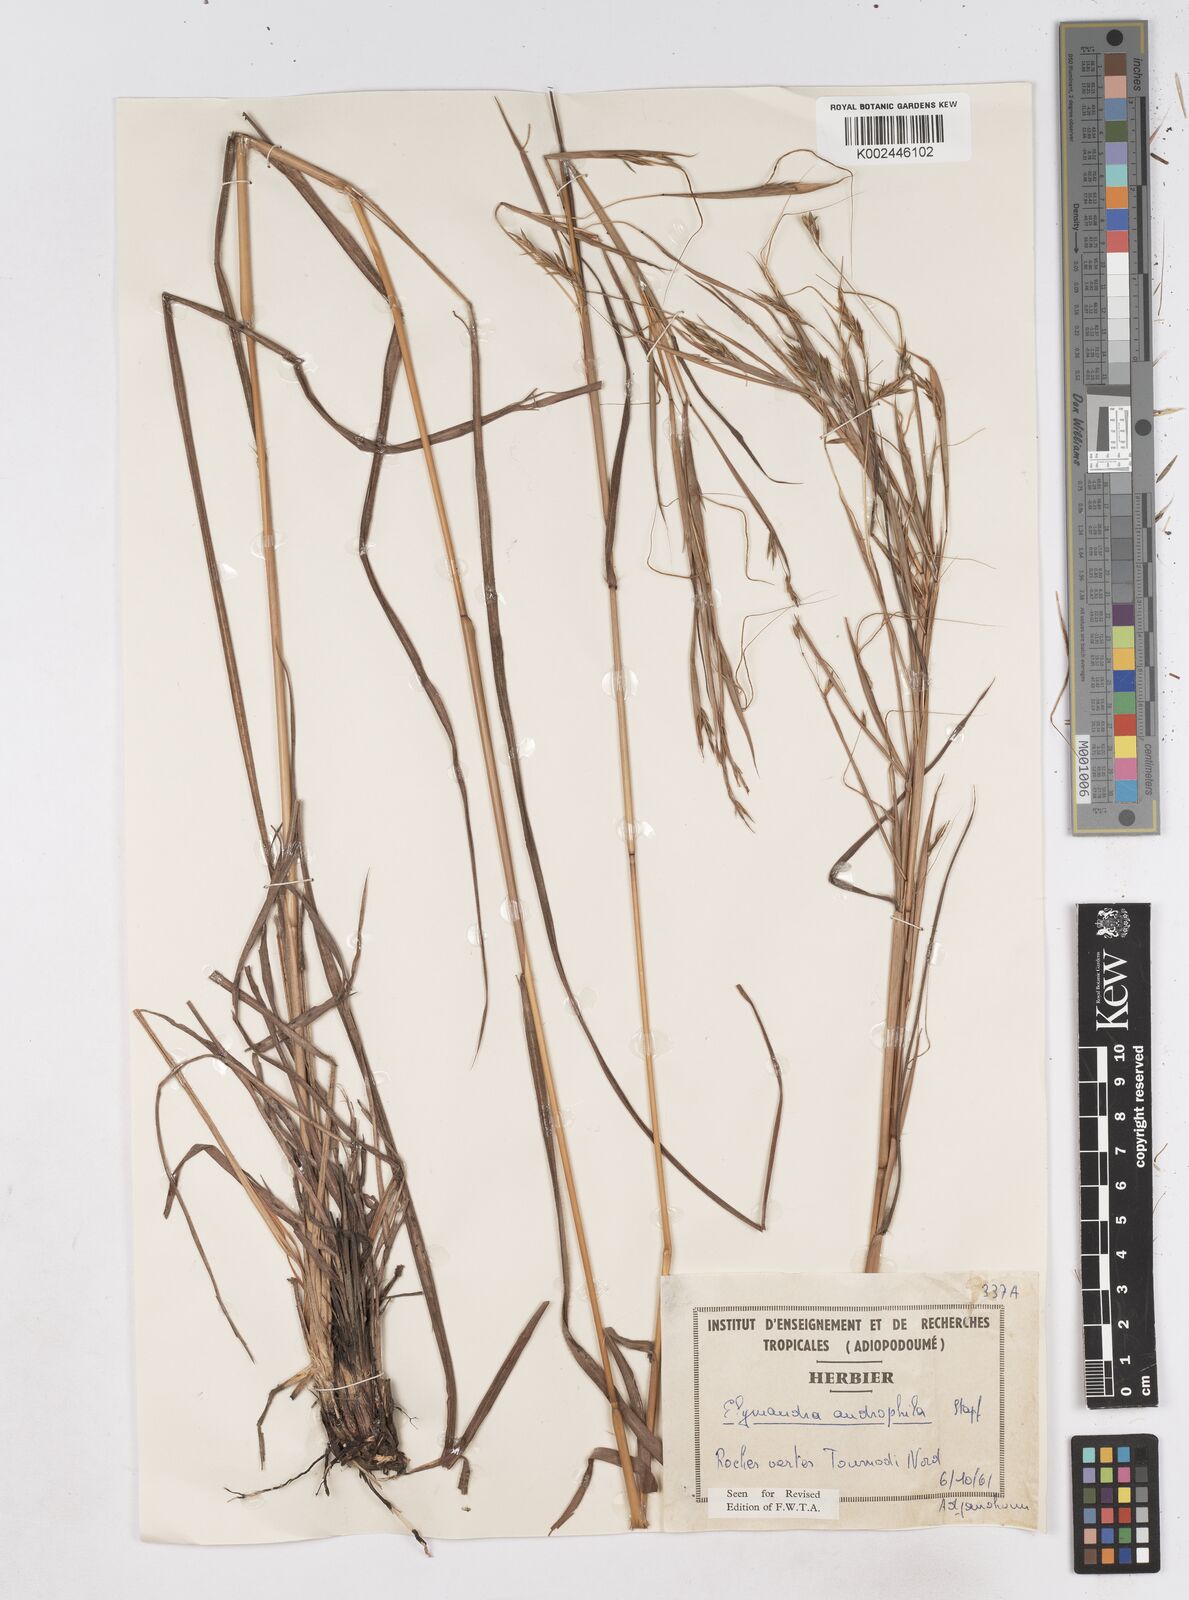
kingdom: Plantae
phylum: Tracheophyta
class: Liliopsida
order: Poales
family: Poaceae
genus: Elymandra
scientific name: Elymandra androphila
